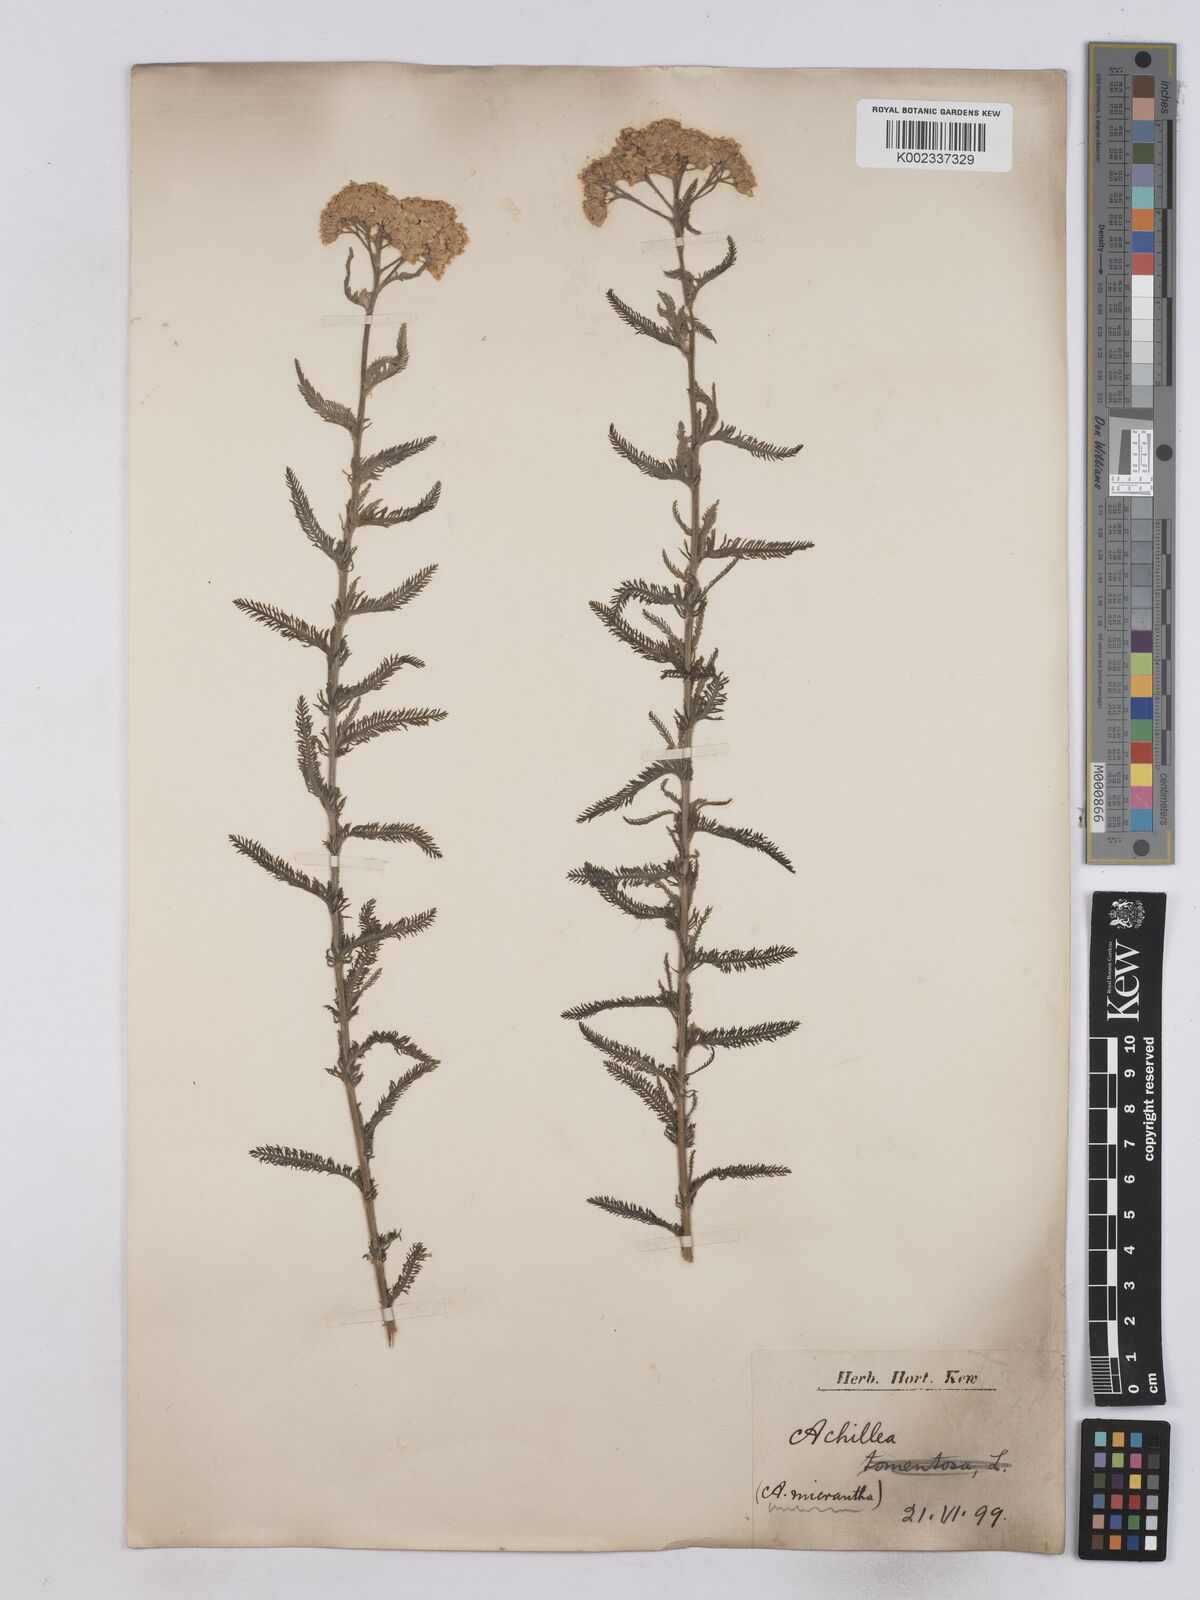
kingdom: Plantae
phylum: Tracheophyta
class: Magnoliopsida
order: Asterales
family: Asteraceae
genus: Achillea
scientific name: Achillea micrantha
